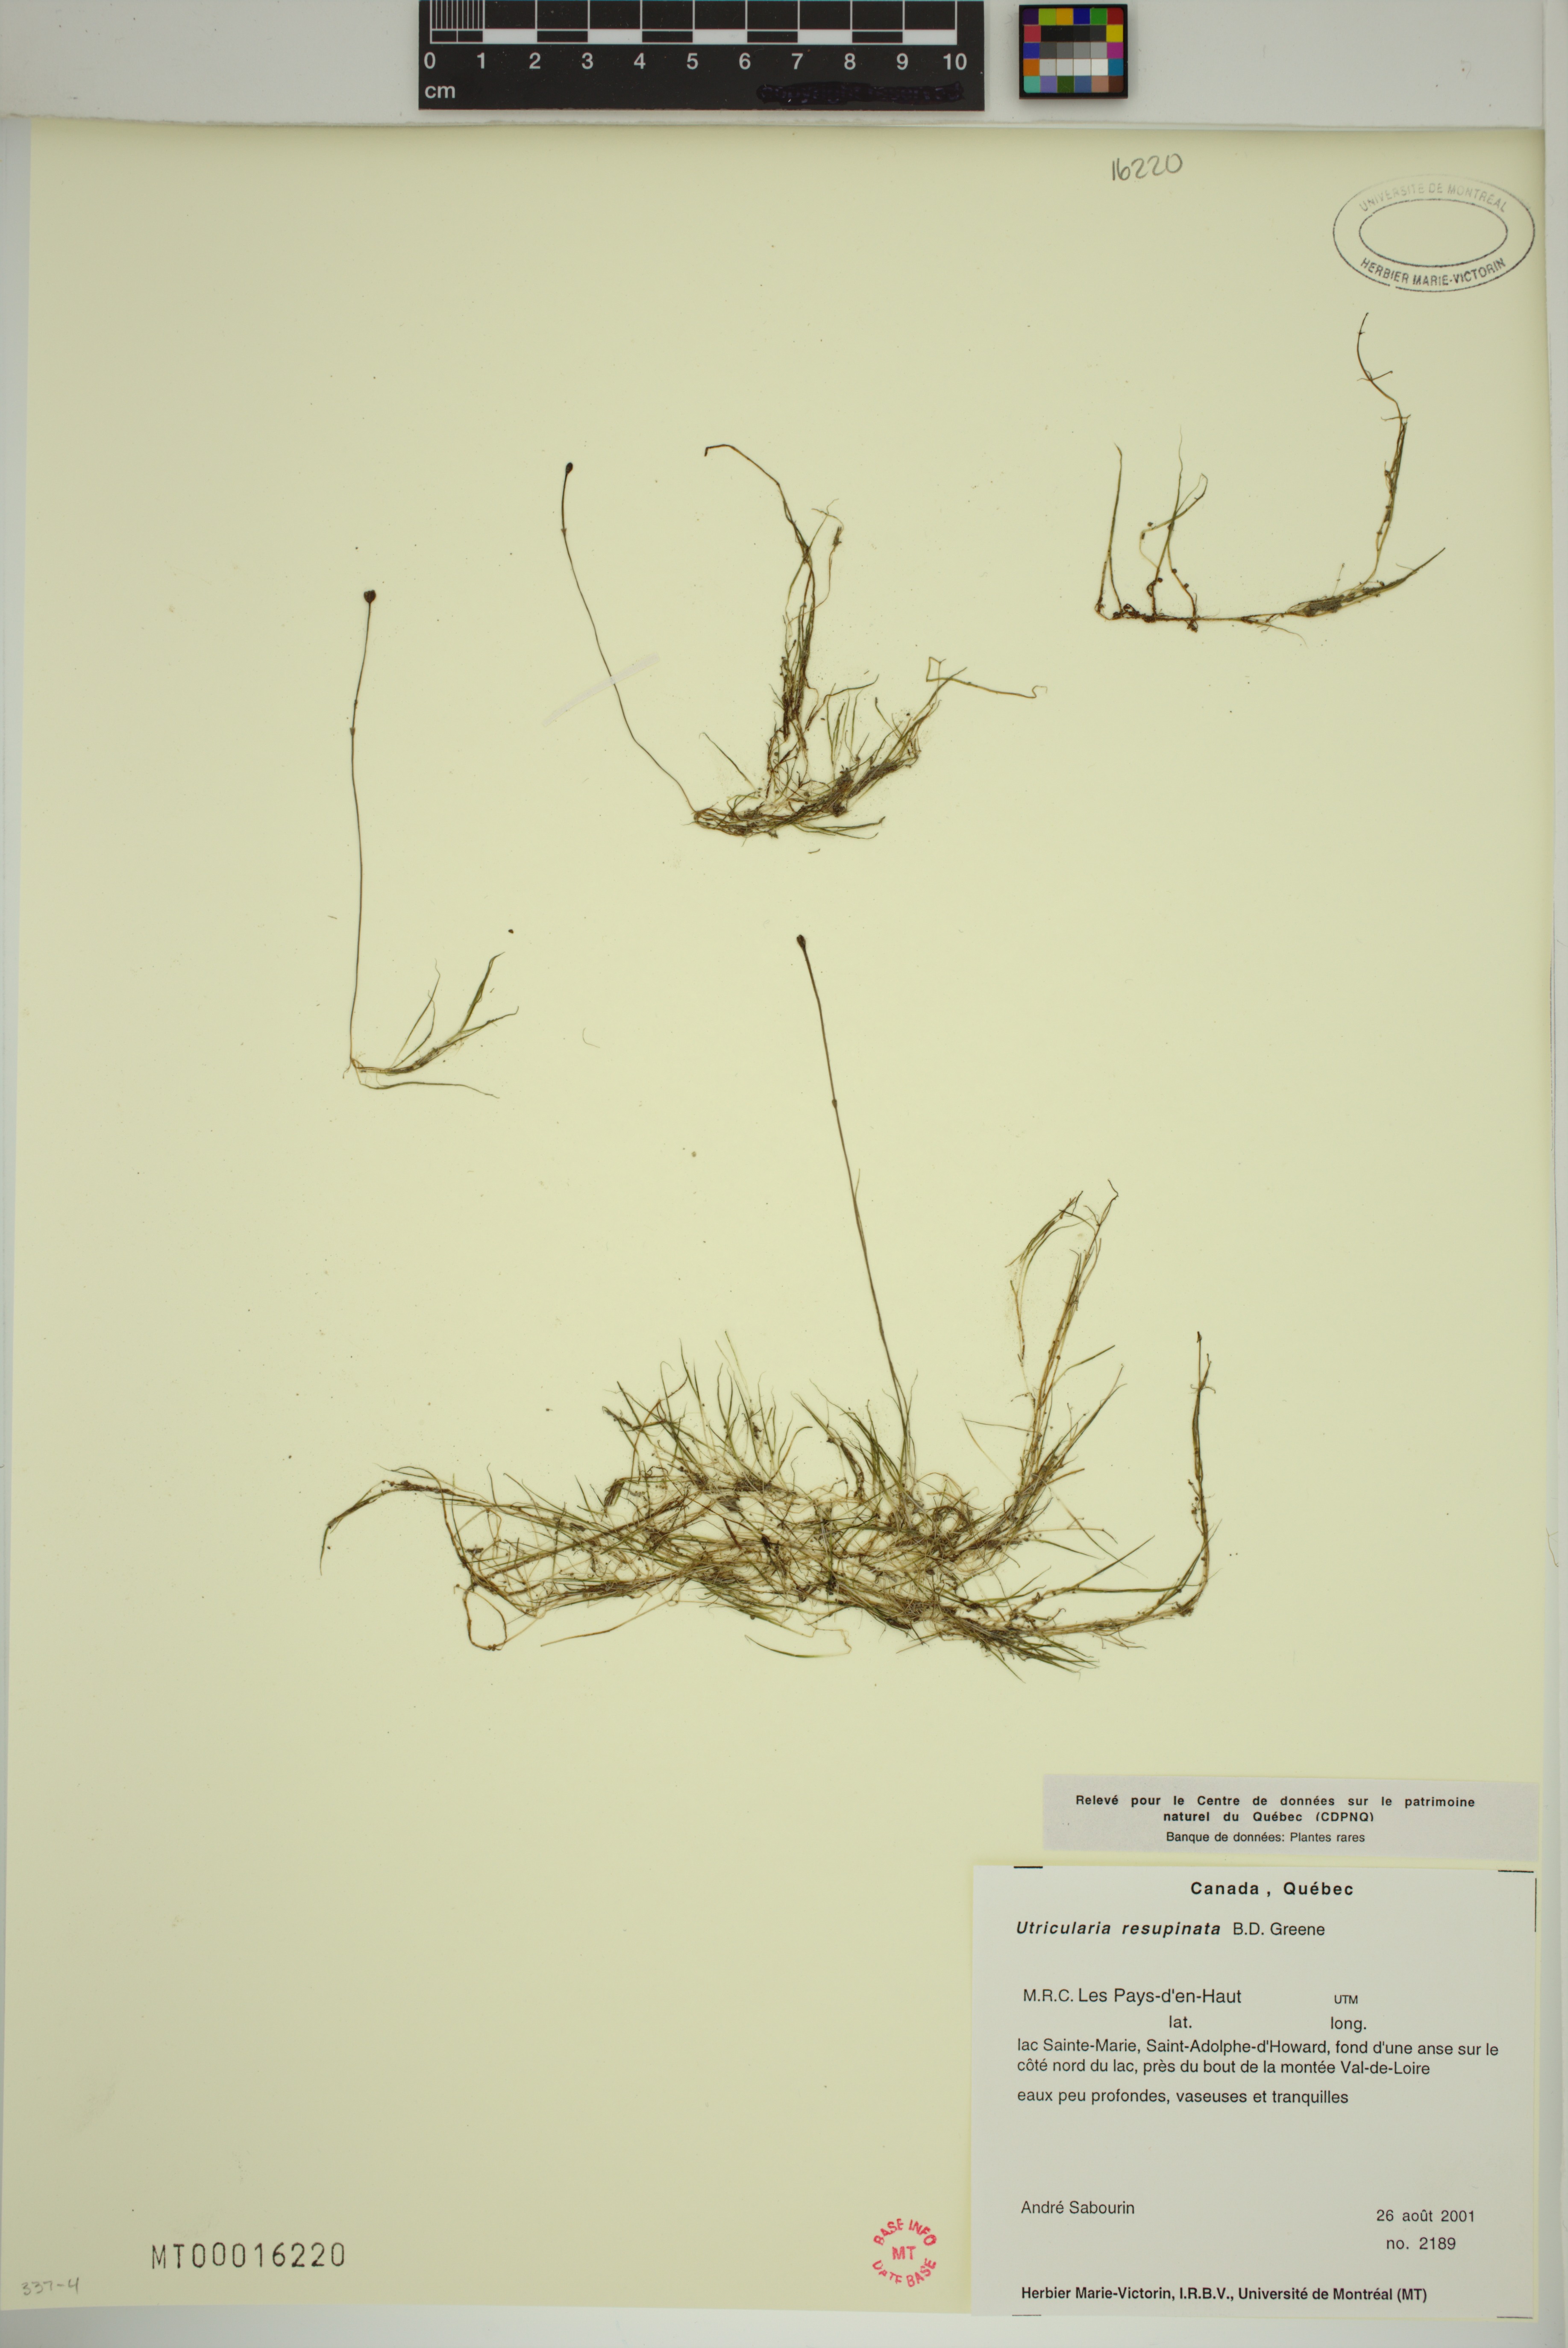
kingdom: Plantae
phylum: Tracheophyta
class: Magnoliopsida
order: Lamiales
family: Lentibulariaceae
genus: Utricularia
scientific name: Utricularia resupinata
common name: Northeastern bladderwort
